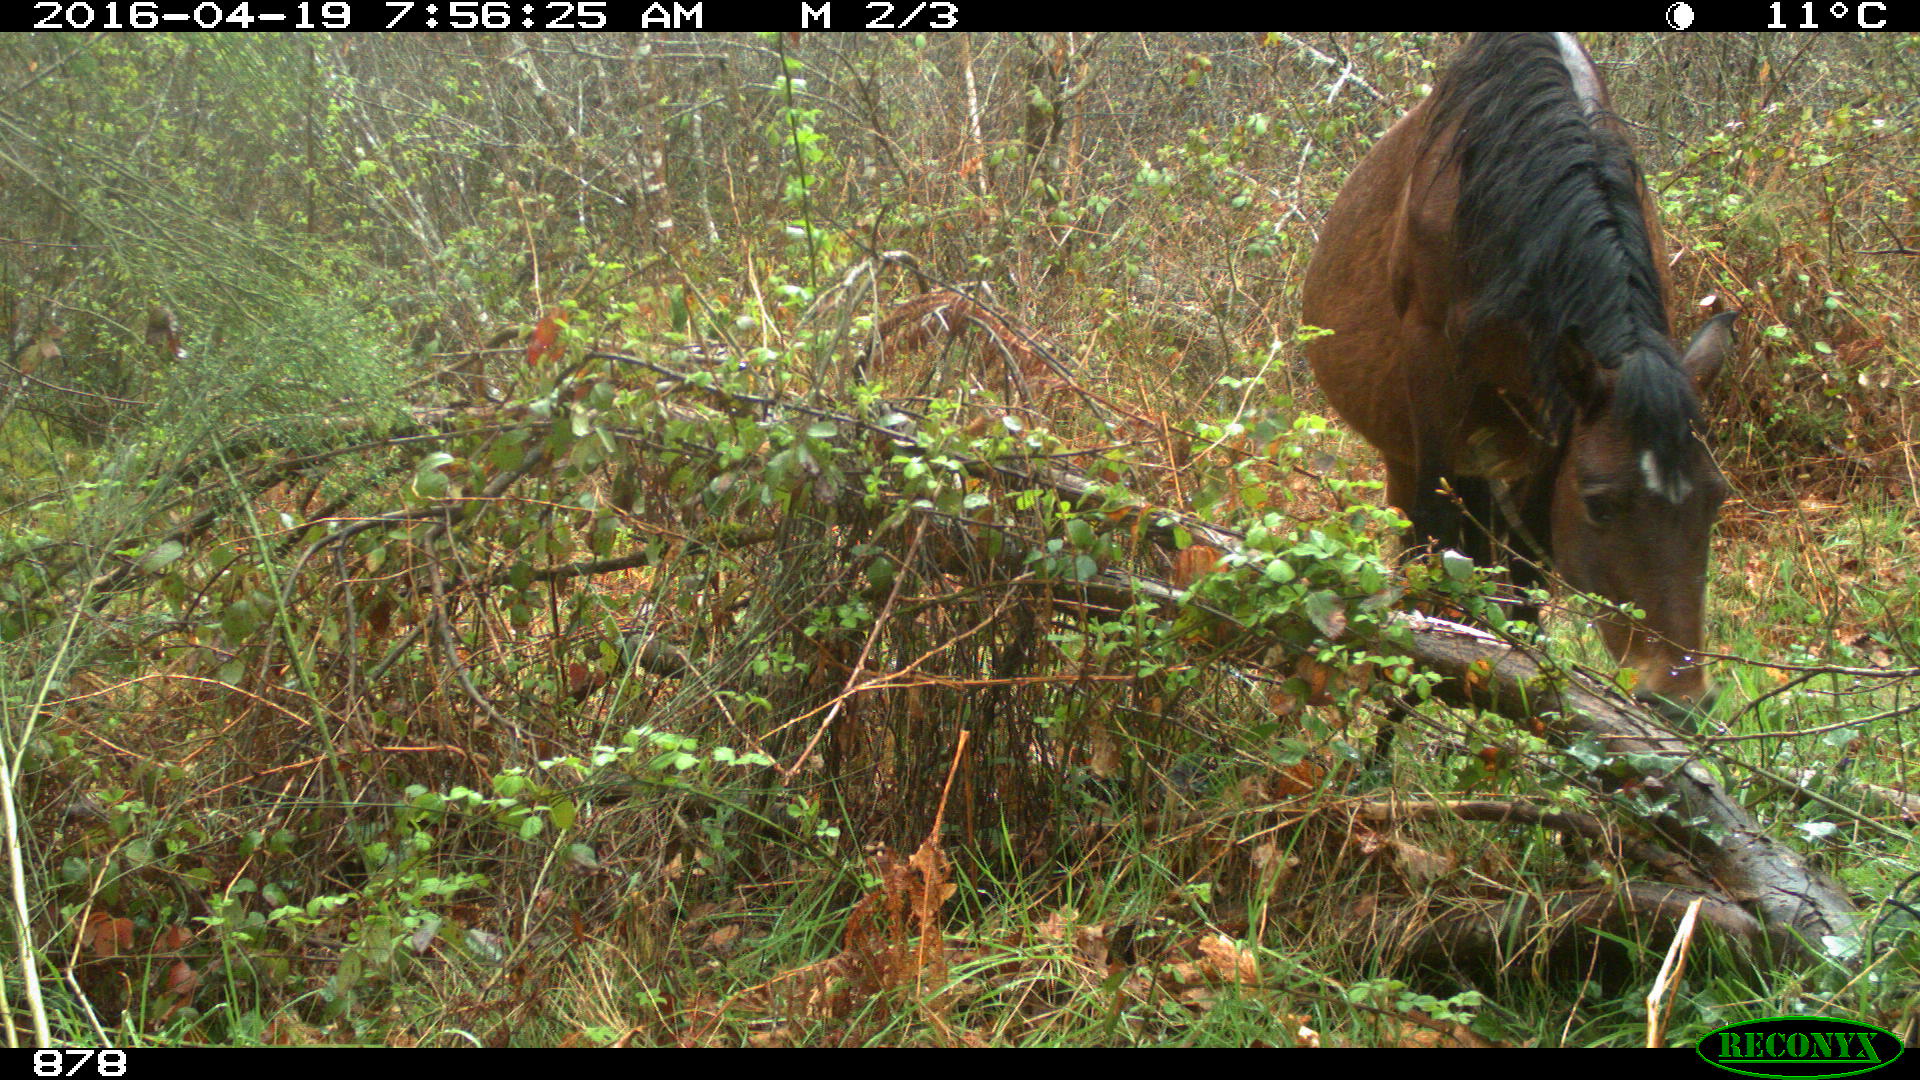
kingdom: Animalia
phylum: Chordata
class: Mammalia
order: Perissodactyla
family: Equidae
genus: Equus
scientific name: Equus caballus
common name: Horse
